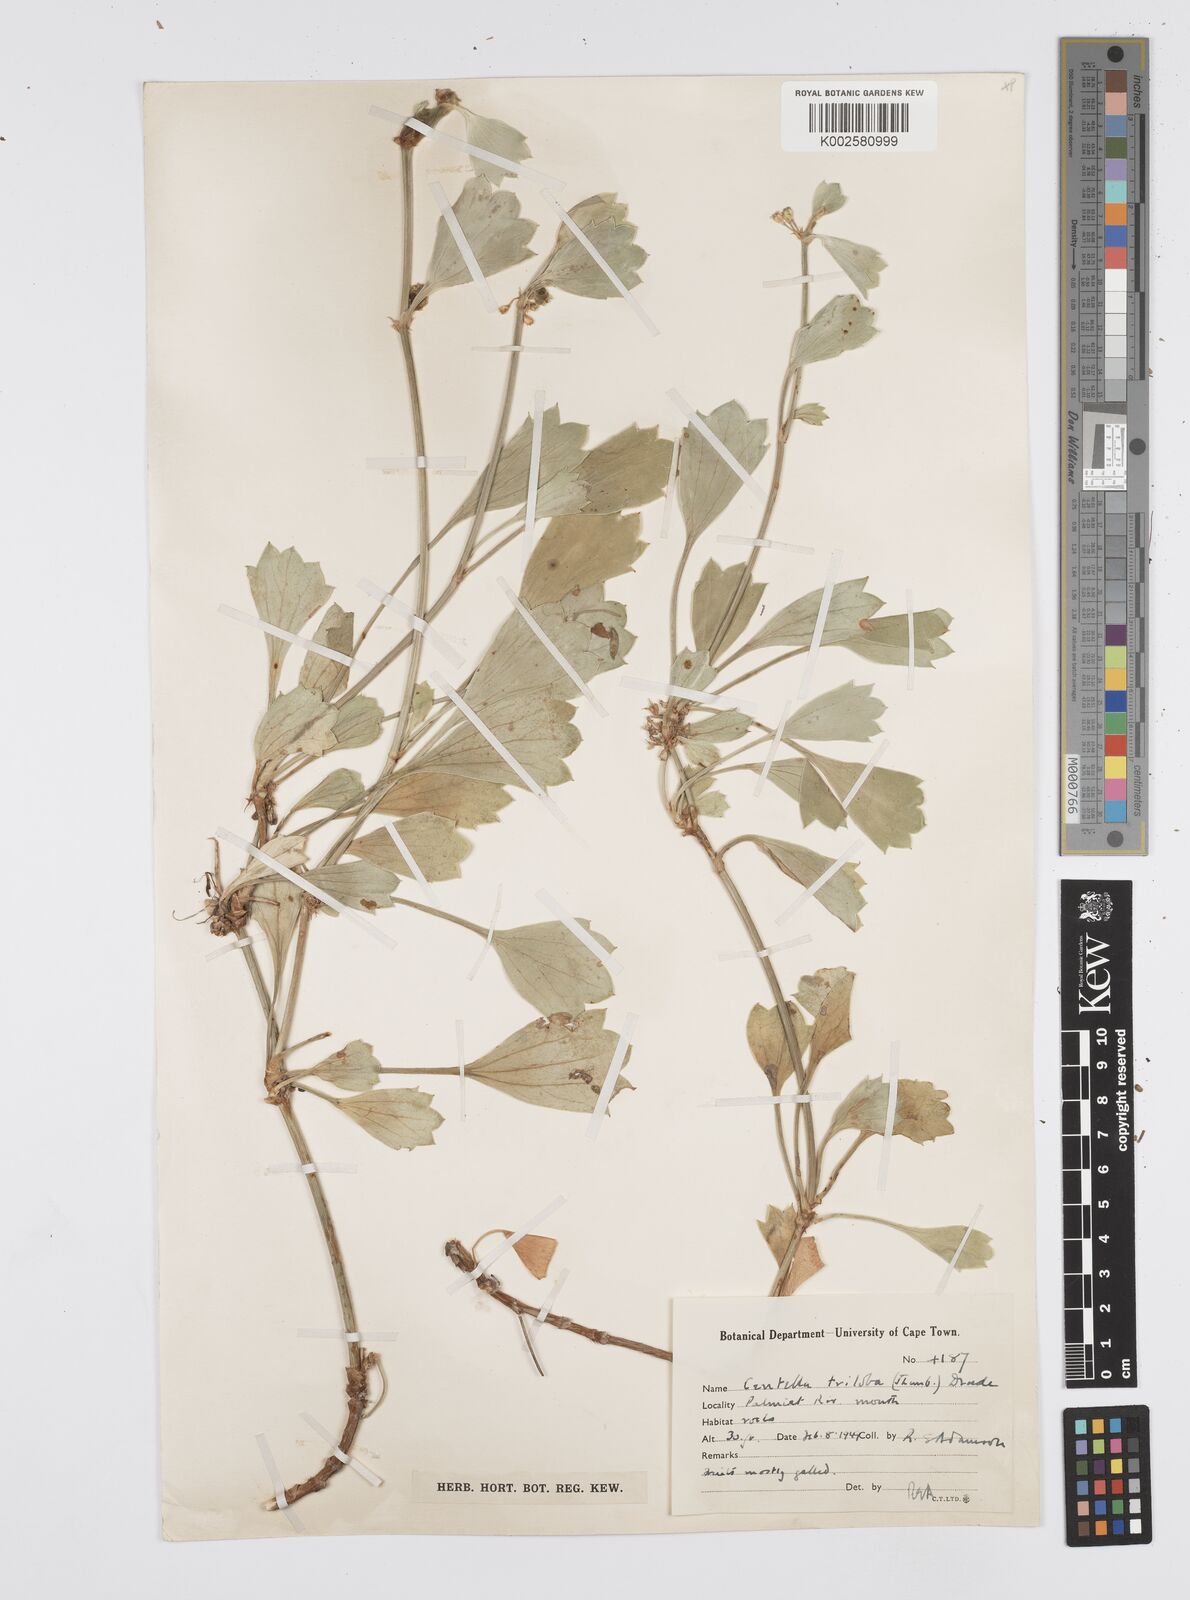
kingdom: Plantae
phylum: Tracheophyta
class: Magnoliopsida
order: Apiales
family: Apiaceae
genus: Centella
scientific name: Centella triloba
